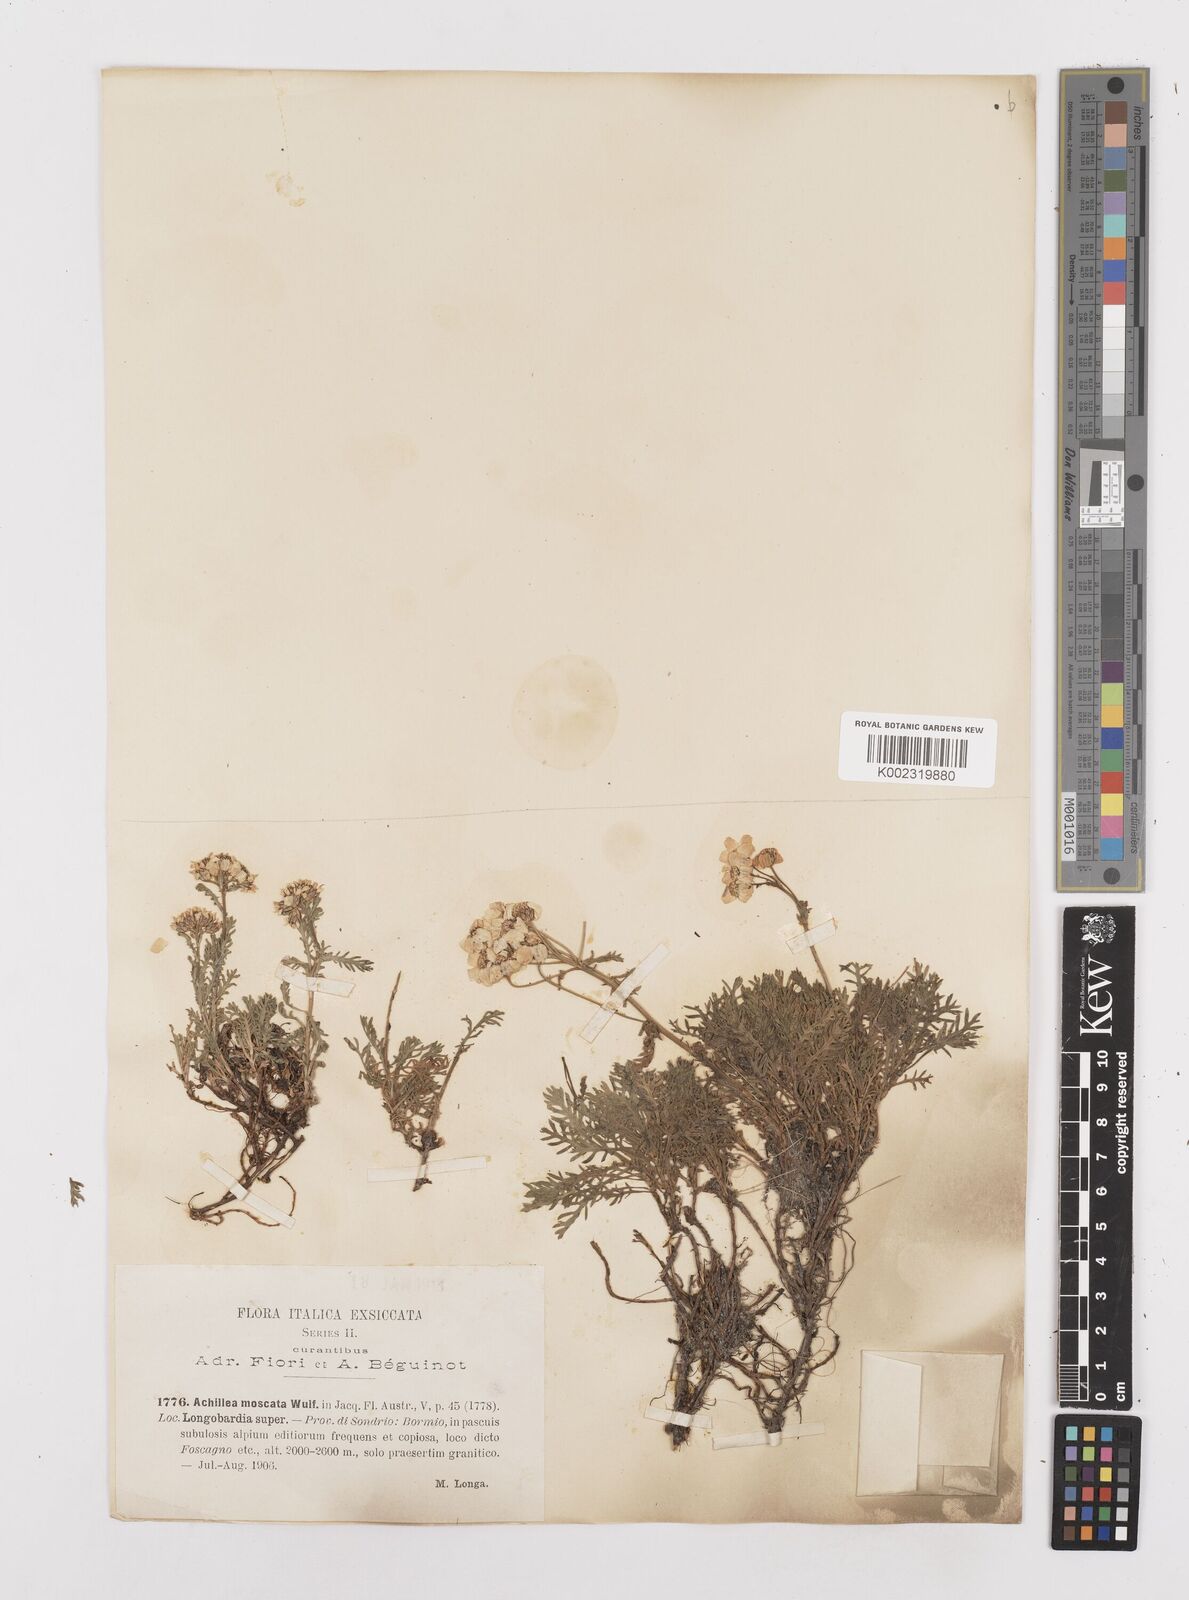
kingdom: Plantae
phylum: Tracheophyta
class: Magnoliopsida
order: Asterales
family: Asteraceae
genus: Achillea
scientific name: Achillea erba-rotta
